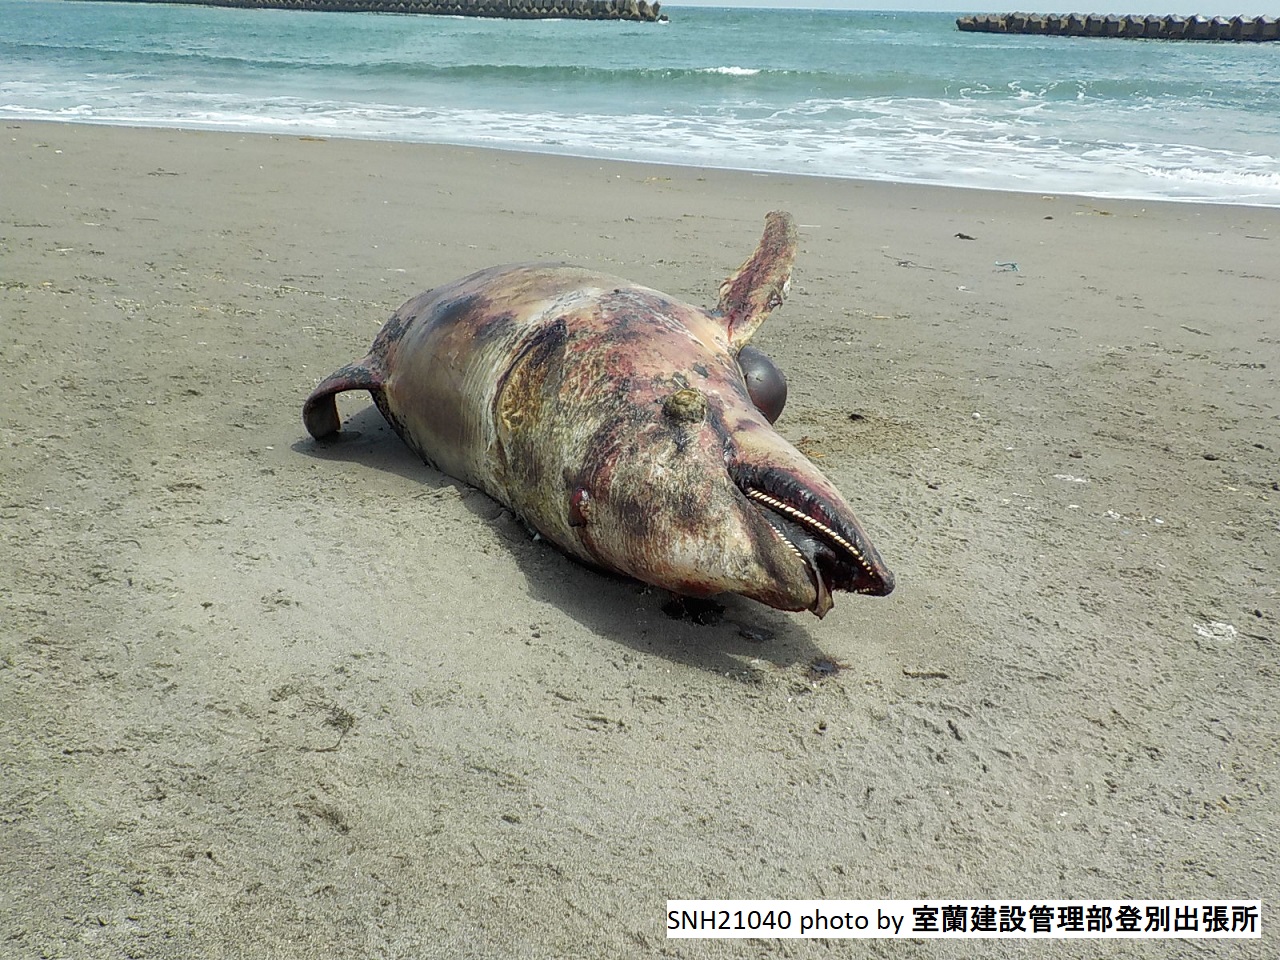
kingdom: Animalia
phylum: Chordata
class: Mammalia
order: Cetacea
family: Delphinidae
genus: Lagenorhynchus
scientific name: Lagenorhynchus obliquidens
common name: Pacific white-sided dolphin
